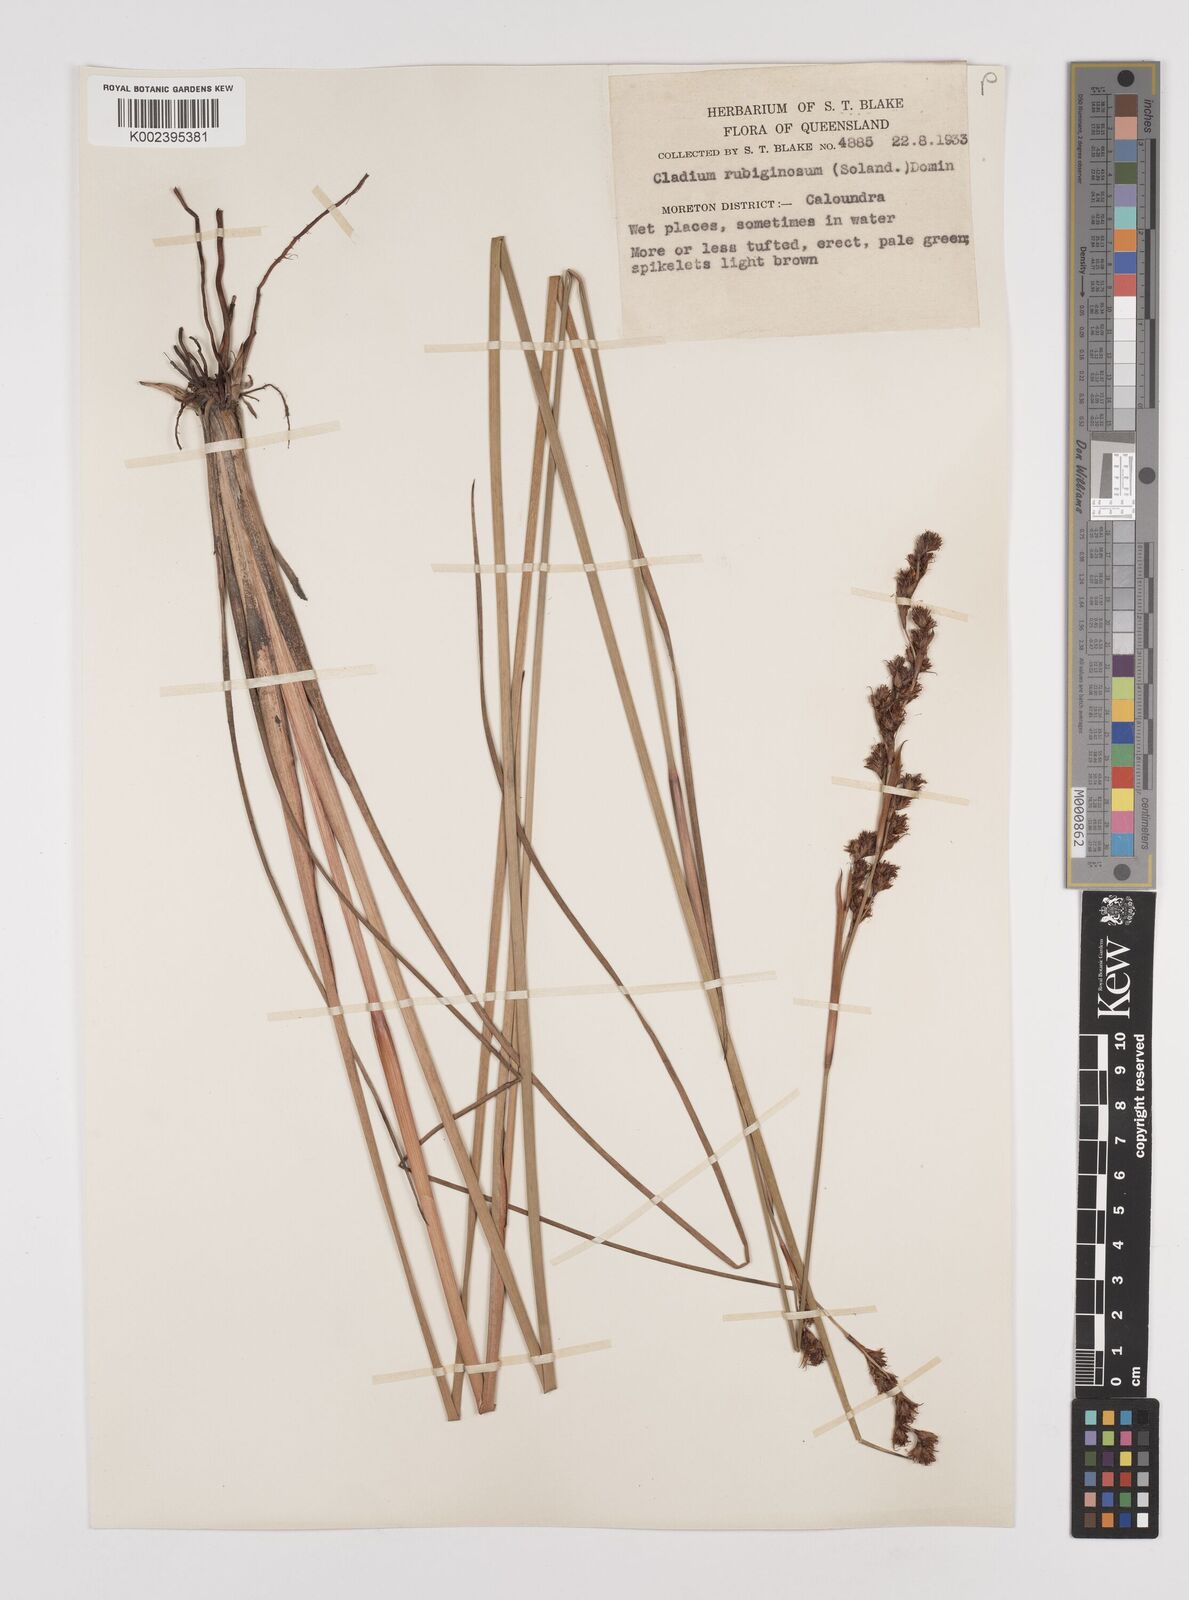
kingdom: Plantae
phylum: Tracheophyta
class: Liliopsida
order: Poales
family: Cyperaceae
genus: Machaerina
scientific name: Machaerina rubiginosa
